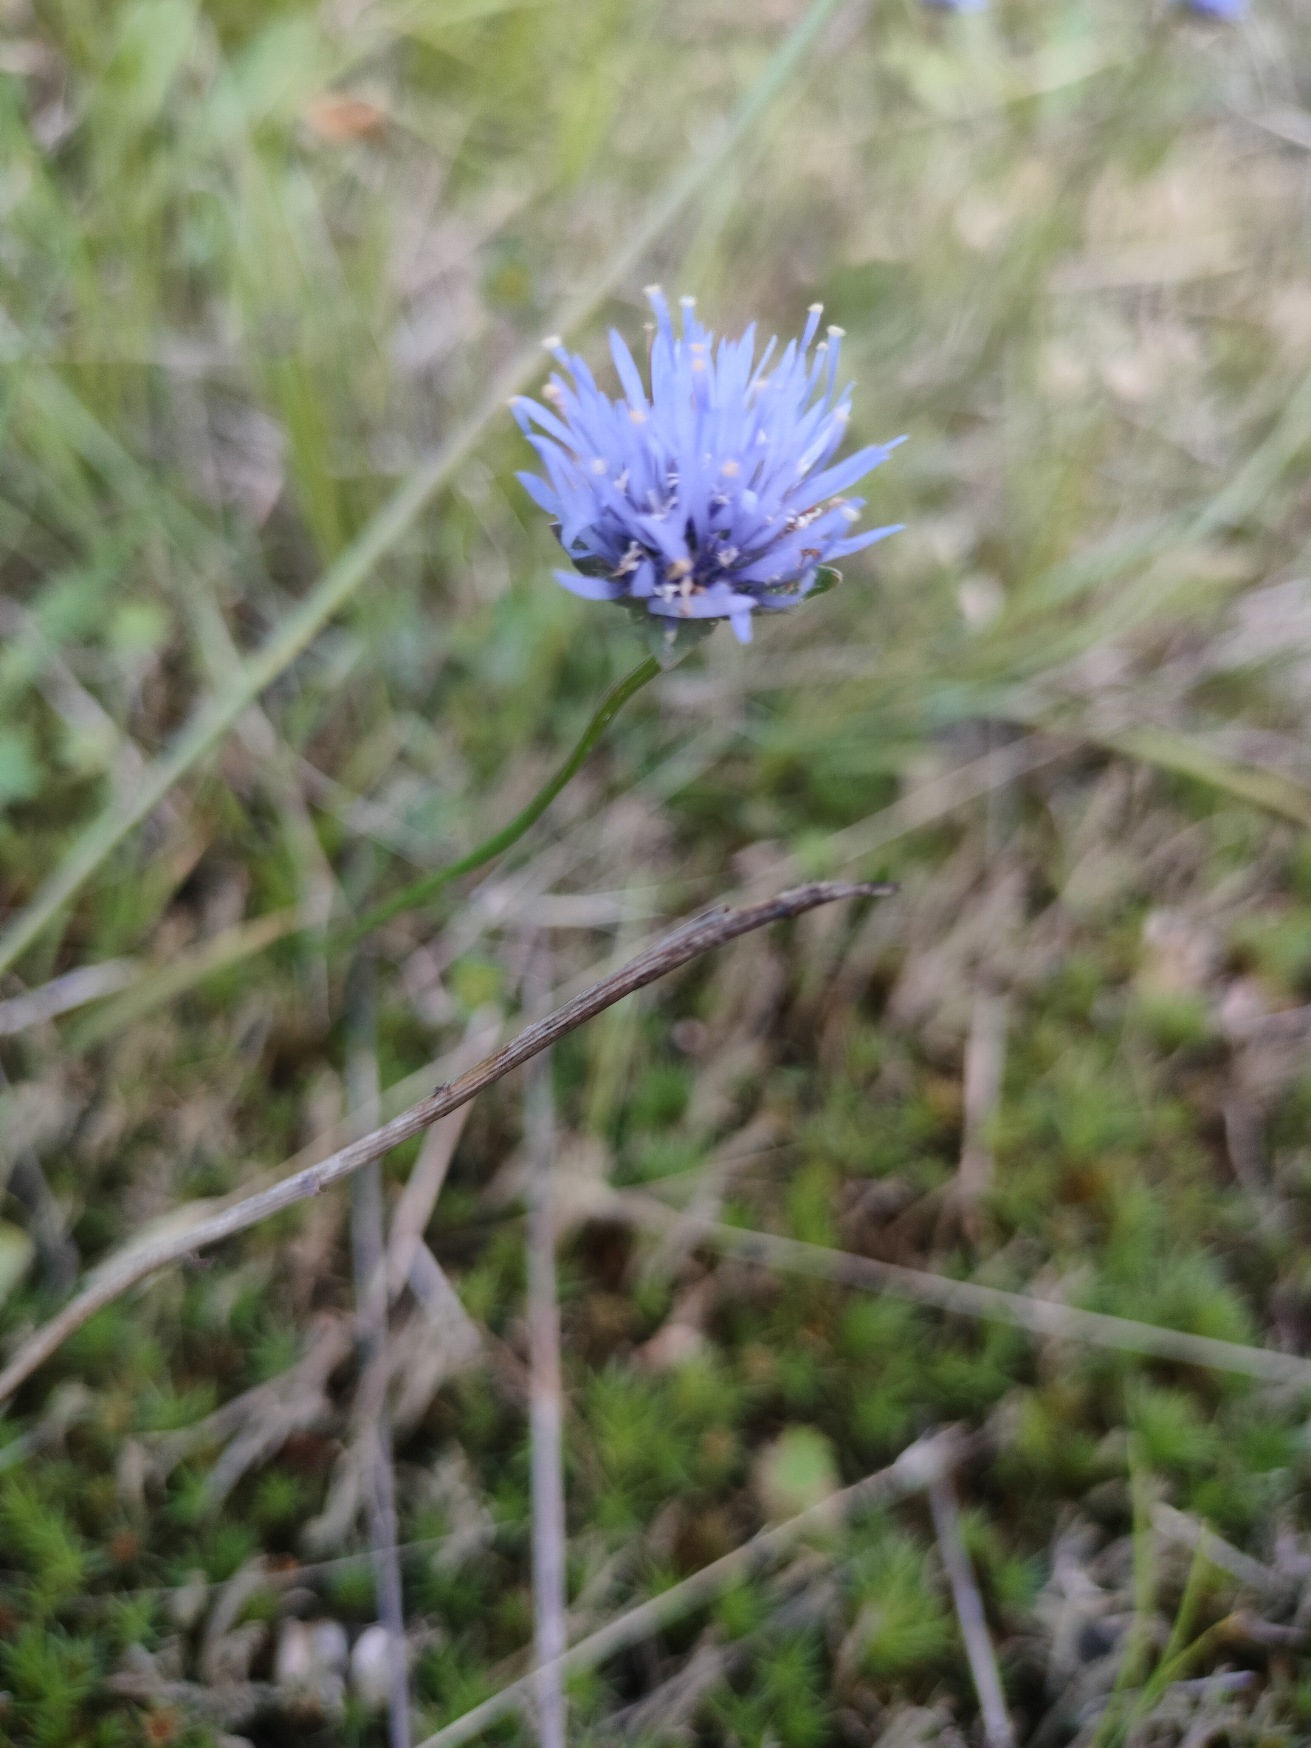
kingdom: Plantae
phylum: Tracheophyta
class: Magnoliopsida
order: Asterales
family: Campanulaceae
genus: Jasione
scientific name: Jasione montana
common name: Blåmunke
